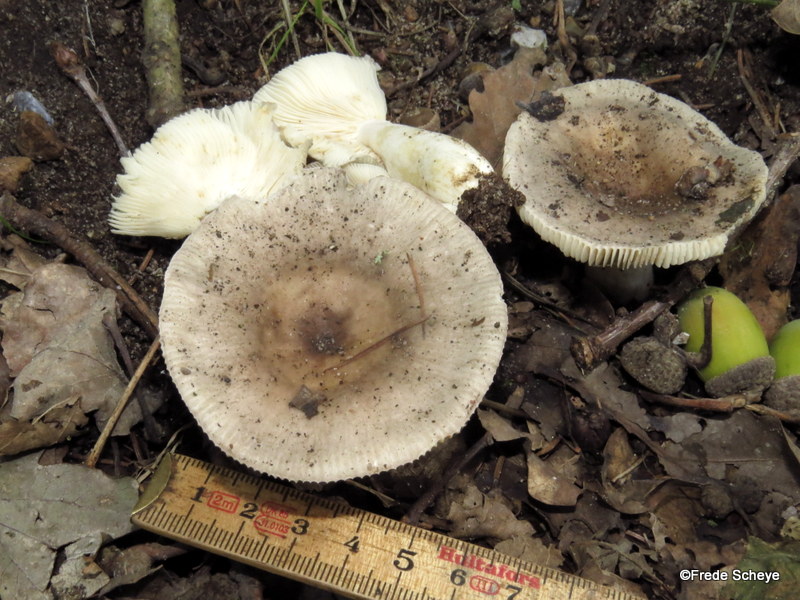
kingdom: Fungi
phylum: Basidiomycota
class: Agaricomycetes
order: Russulales
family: Russulaceae
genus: Russula
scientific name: Russula cyanoxantha
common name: broget skørhat
